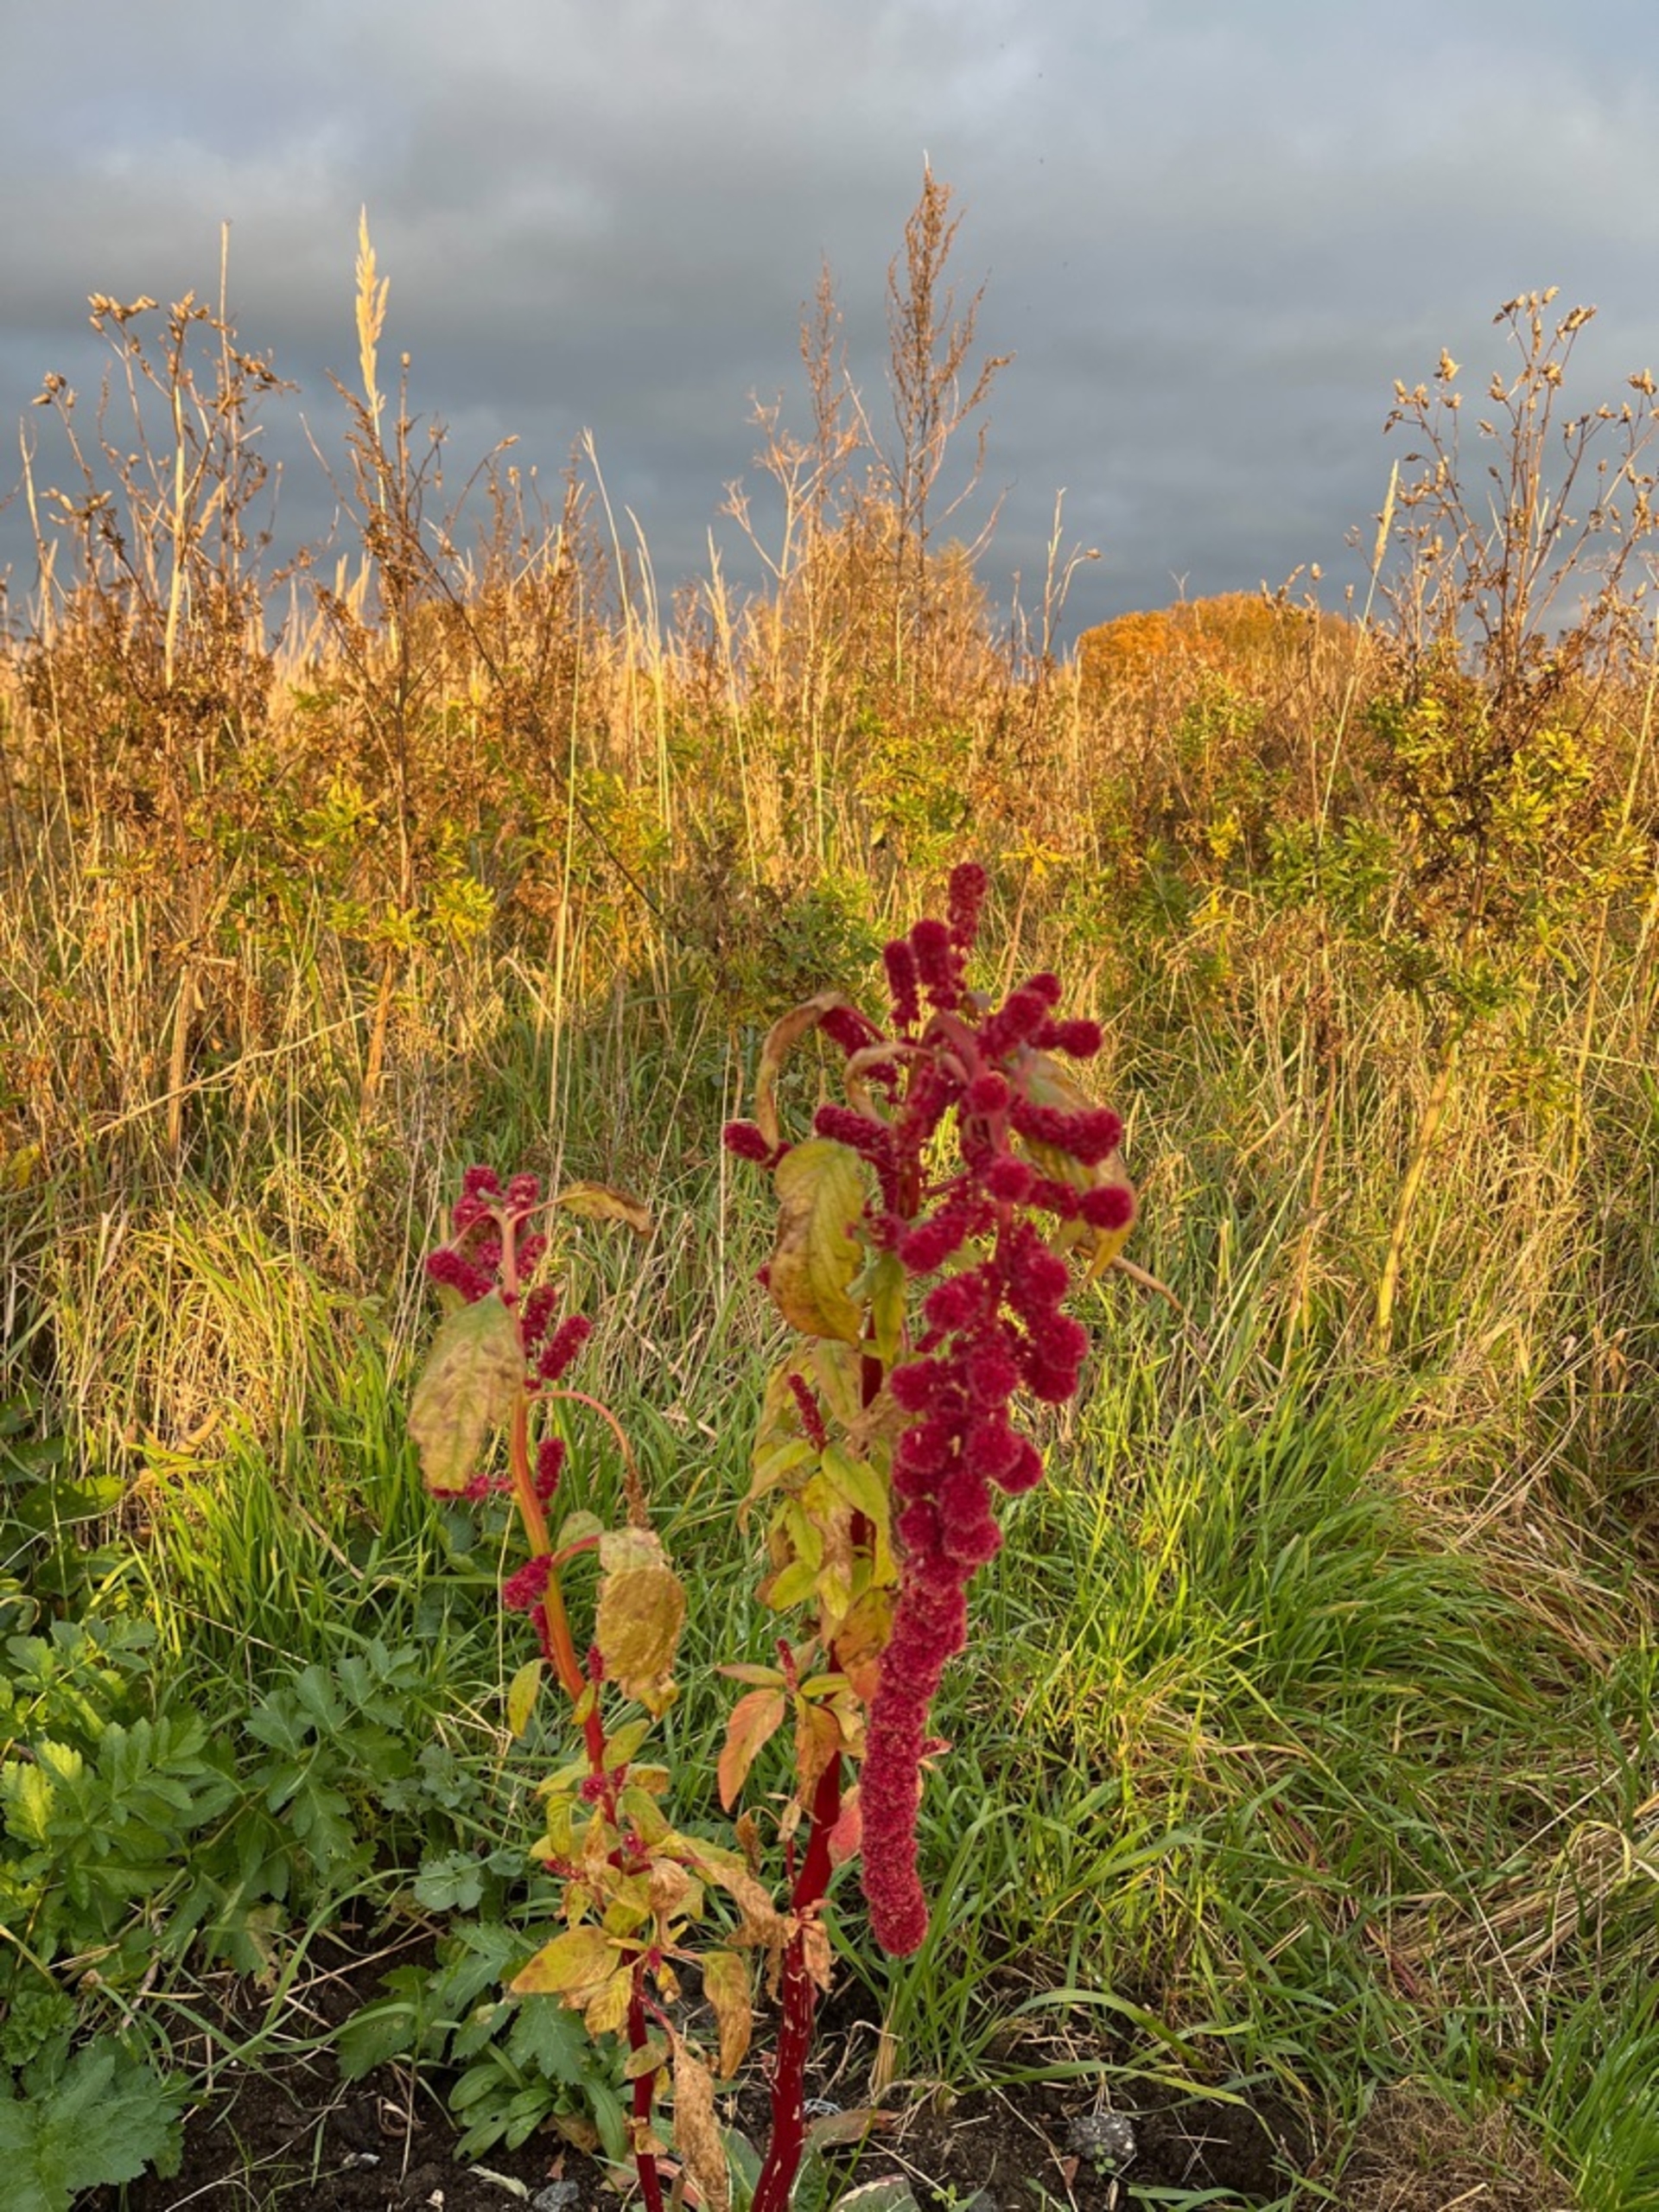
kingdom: Plantae
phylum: Tracheophyta
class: Magnoliopsida
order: Caryophyllales
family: Amaranthaceae
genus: Amaranthus
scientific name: Amaranthus caudatus
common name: Rævehale-amarant
